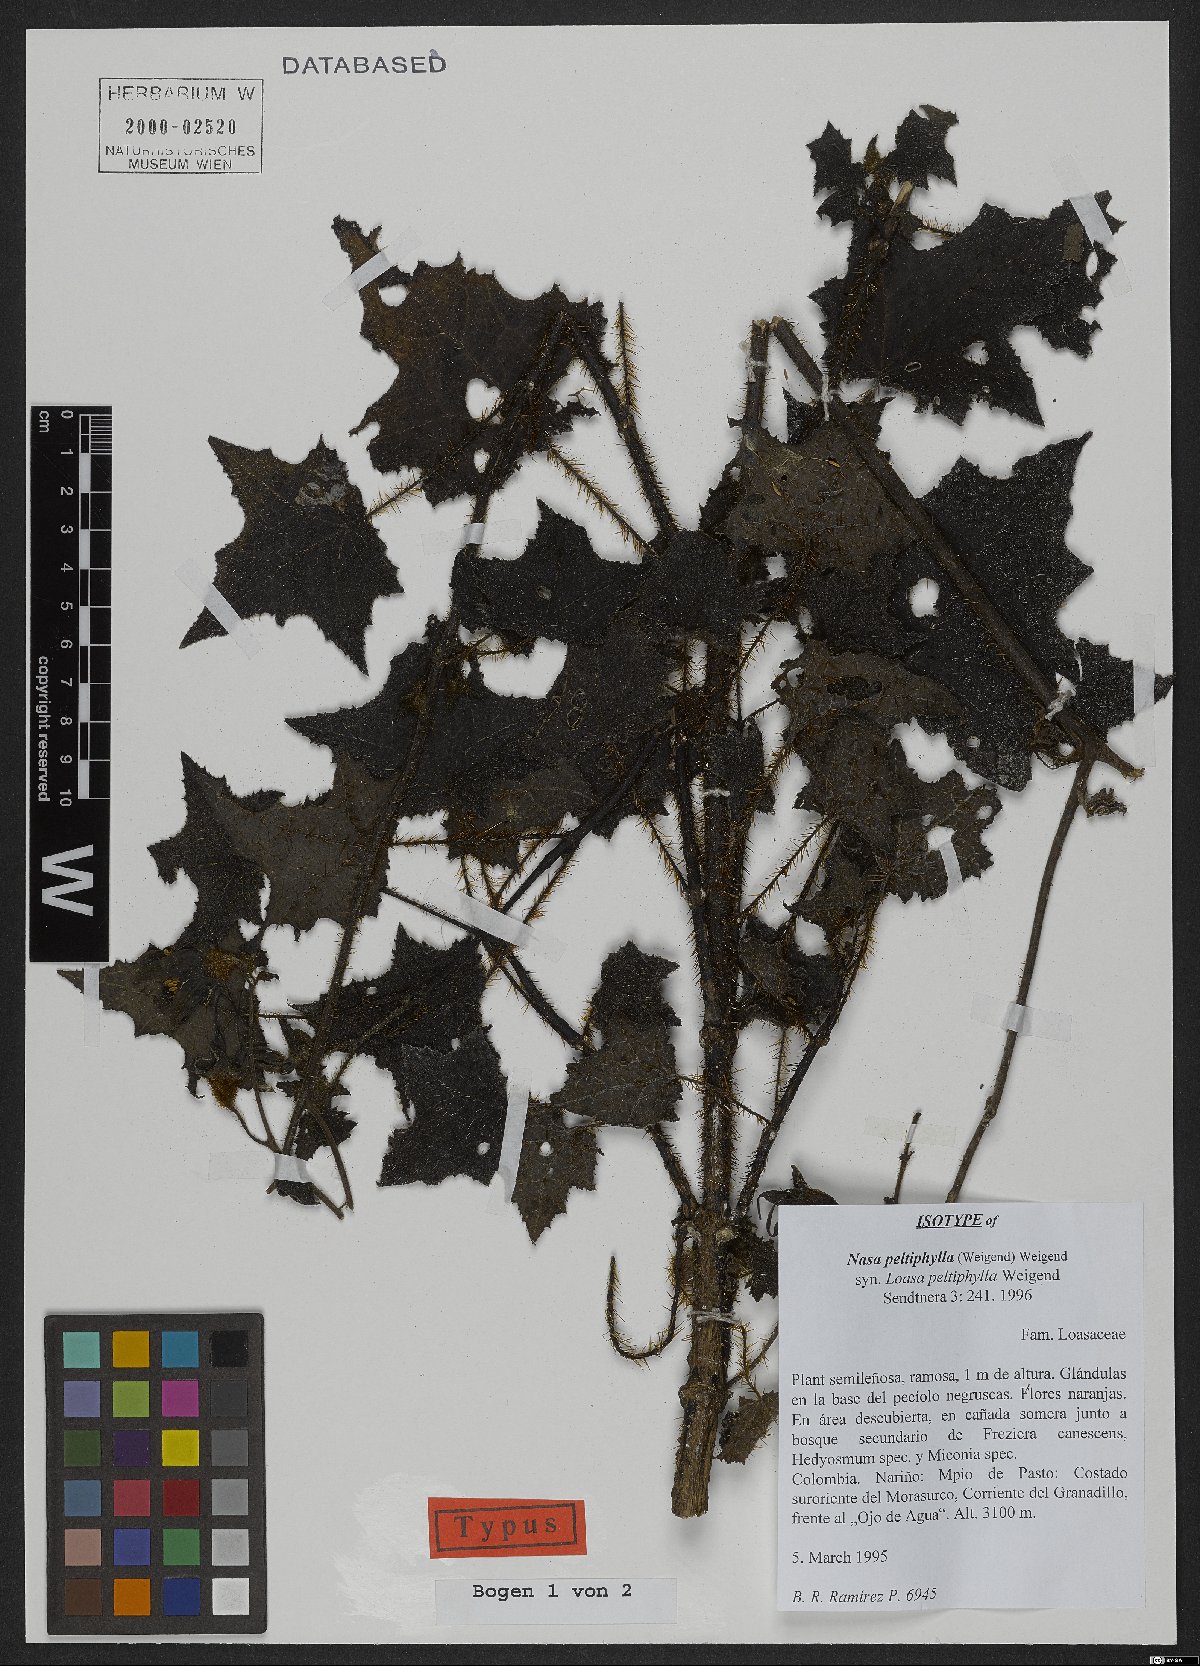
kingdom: Plantae
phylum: Tracheophyta
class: Magnoliopsida
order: Cornales
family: Loasaceae
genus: Nasa
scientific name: Nasa peltiphylla
